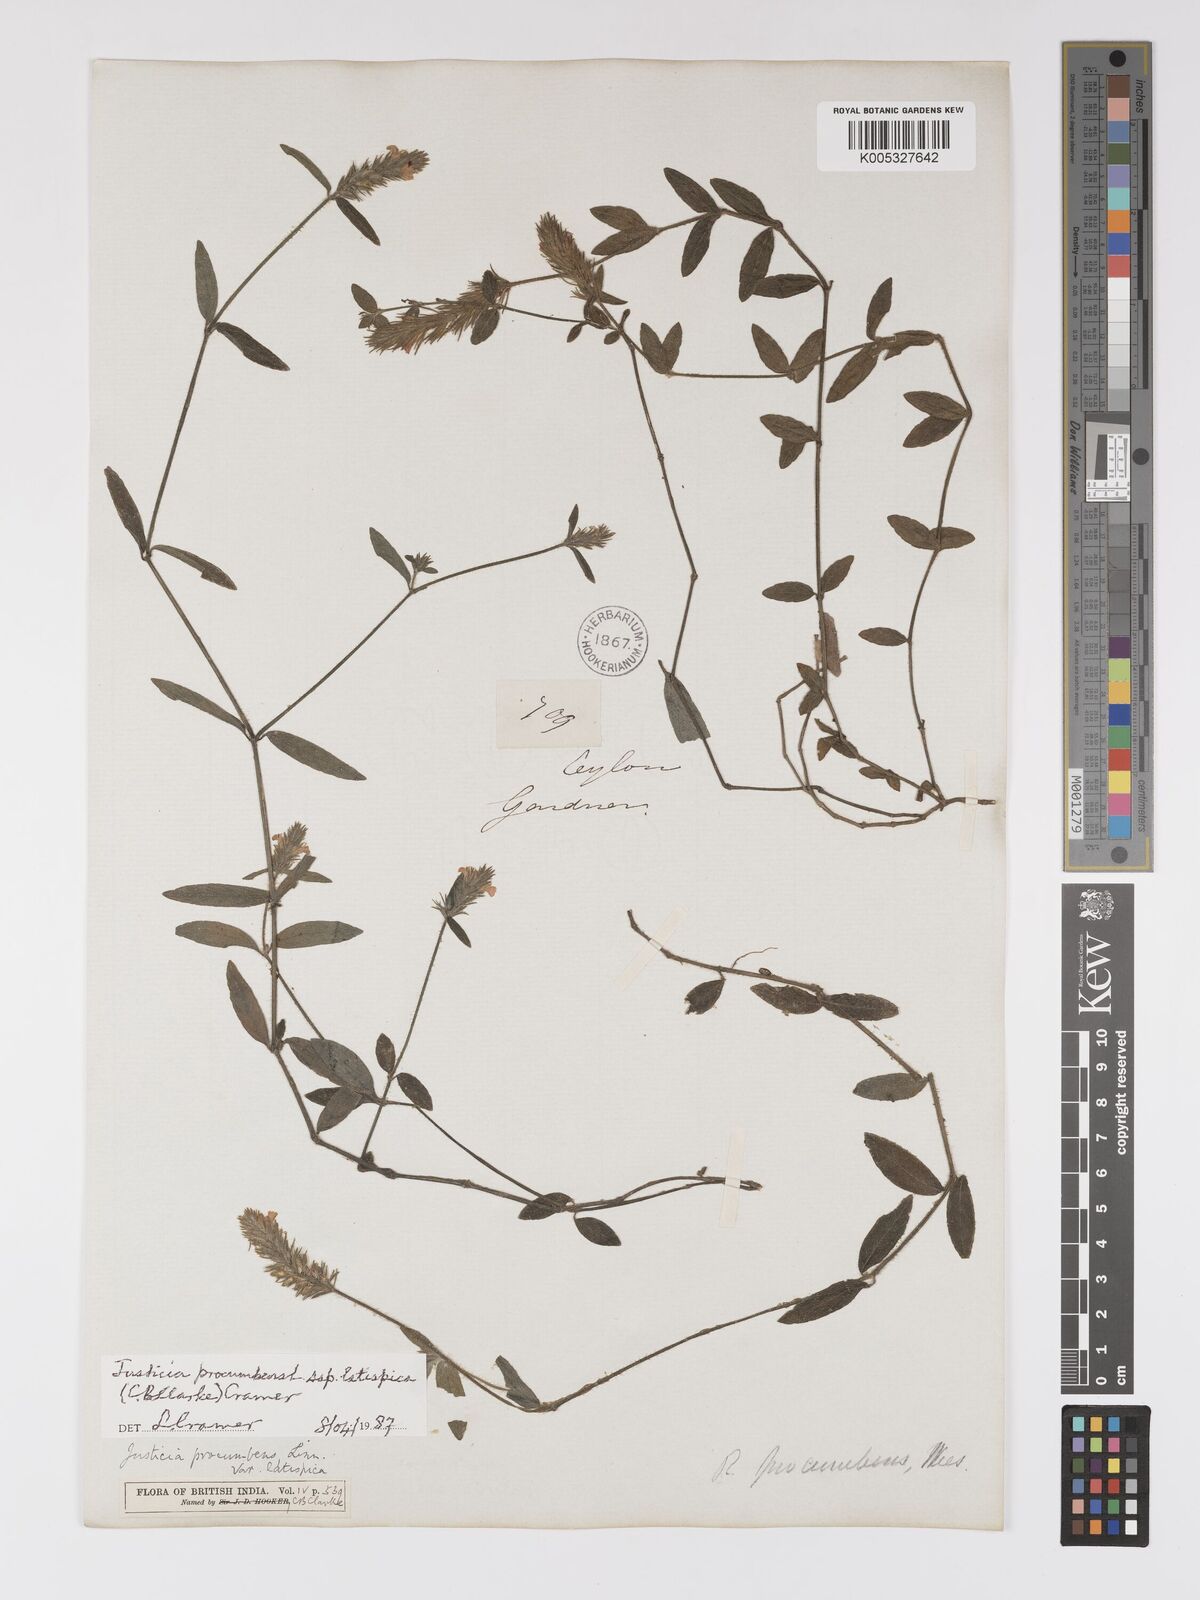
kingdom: Plantae
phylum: Tracheophyta
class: Magnoliopsida
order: Lamiales
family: Acanthaceae
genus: Rostellularia
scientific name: Rostellularia latispica
